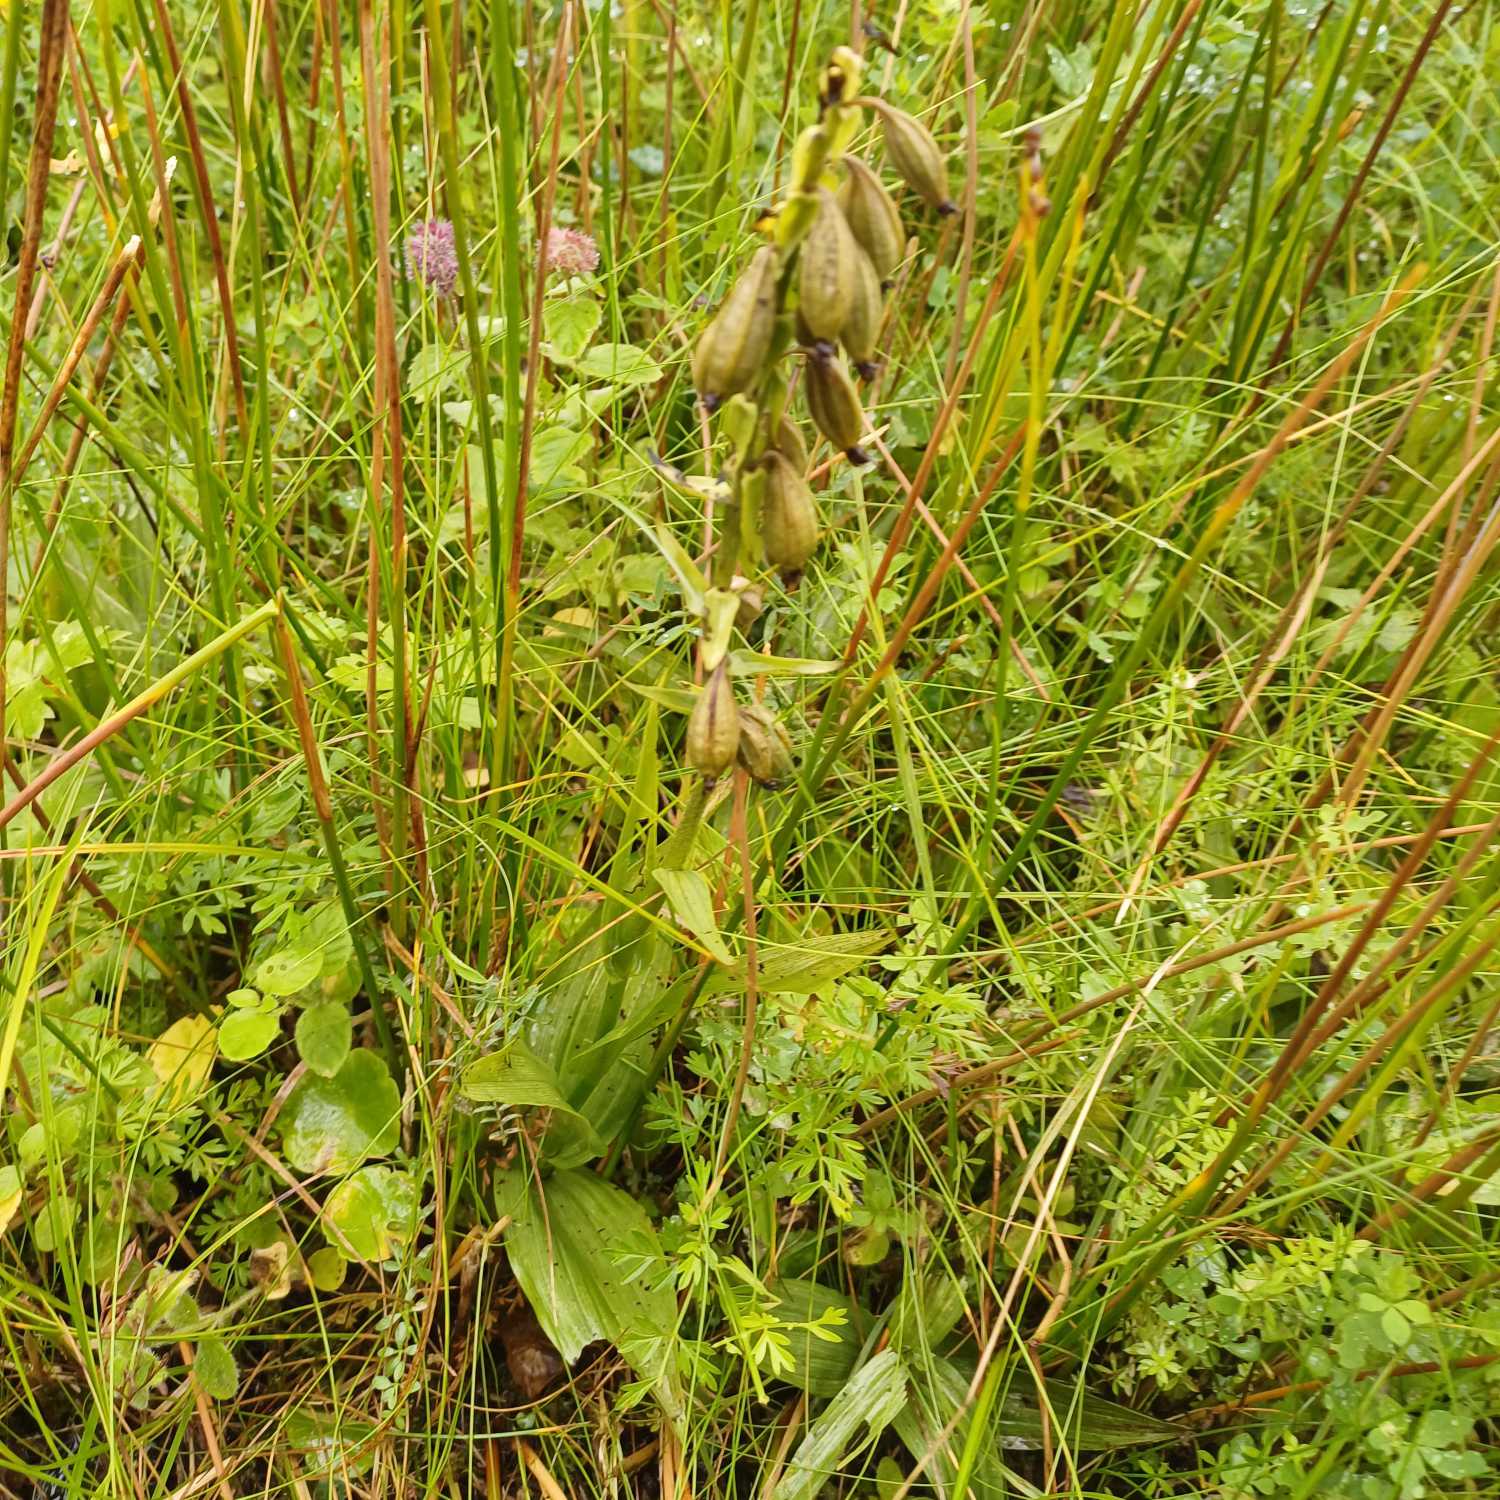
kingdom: Plantae
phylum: Tracheophyta
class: Liliopsida
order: Asparagales
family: Orchidaceae
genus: Epipactis
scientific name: Epipactis palustris
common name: Sump-hullæbe
